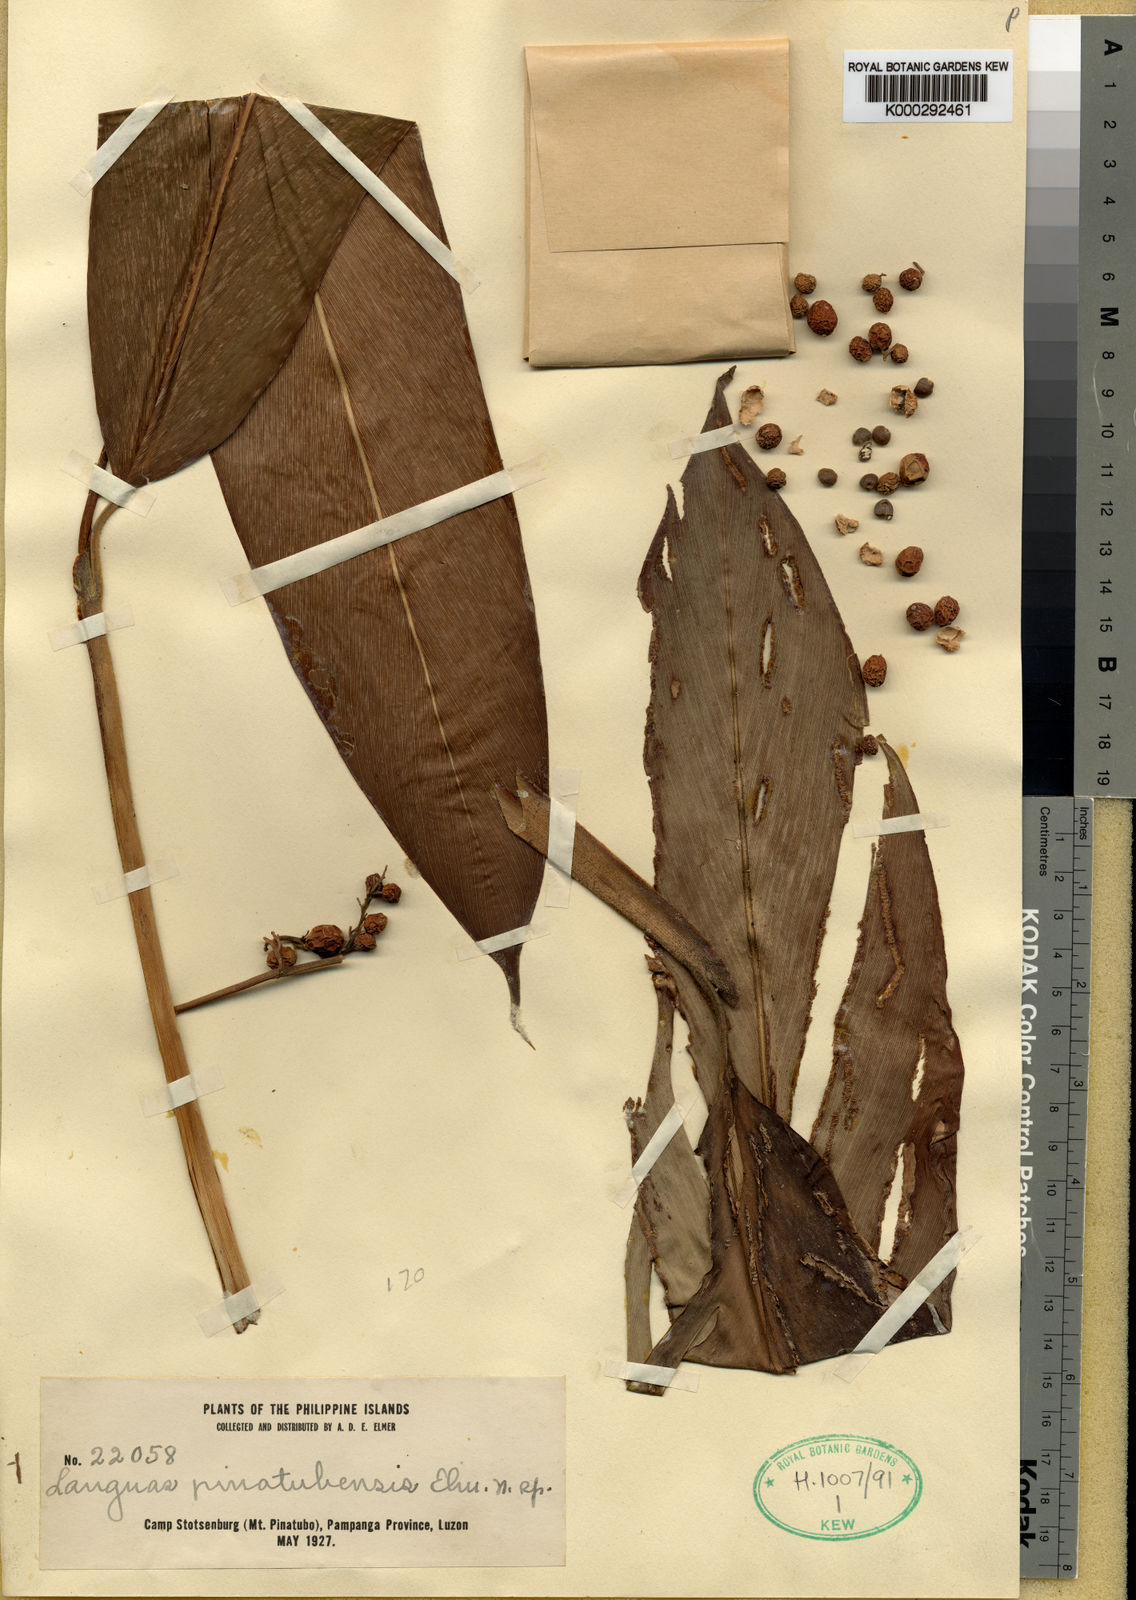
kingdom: Plantae
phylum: Tracheophyta
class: Liliopsida
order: Zingiberales
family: Zingiberaceae
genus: Alpinia
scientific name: Alpinia
